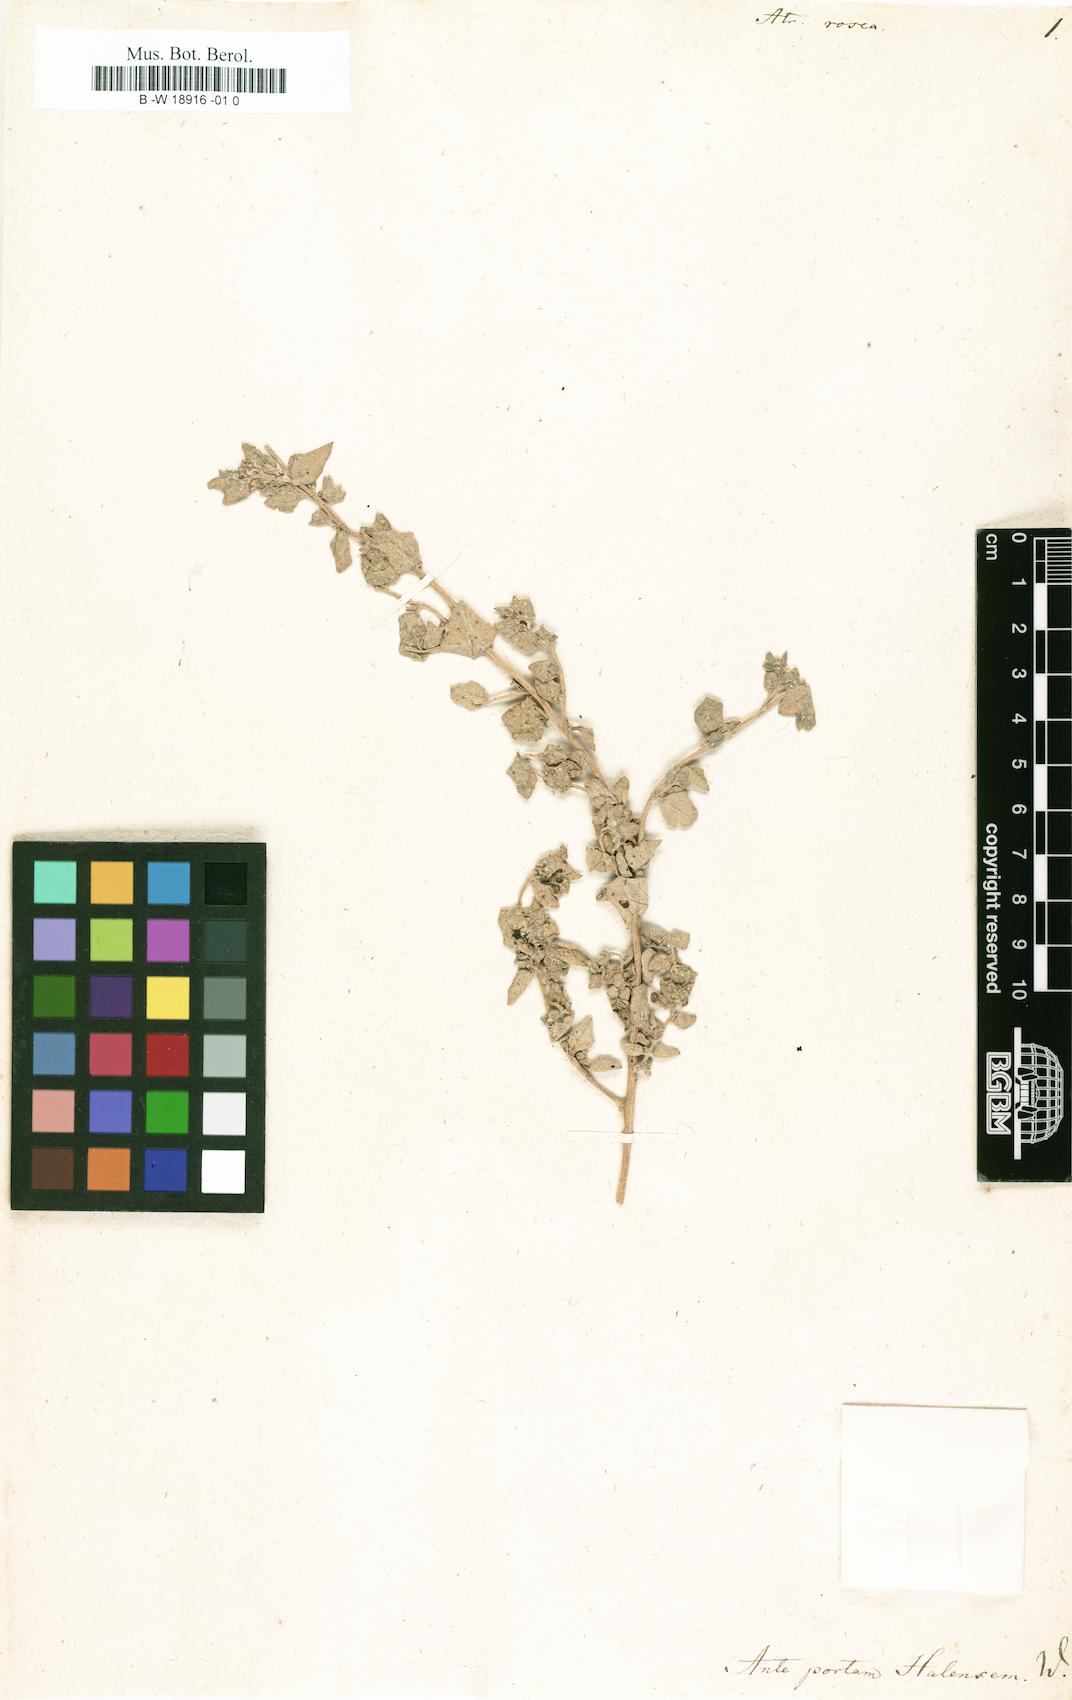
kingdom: Plantae
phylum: Tracheophyta
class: Magnoliopsida
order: Caryophyllales
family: Amaranthaceae
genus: Atriplex
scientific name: Atriplex rosea
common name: Tumbling saltweed
